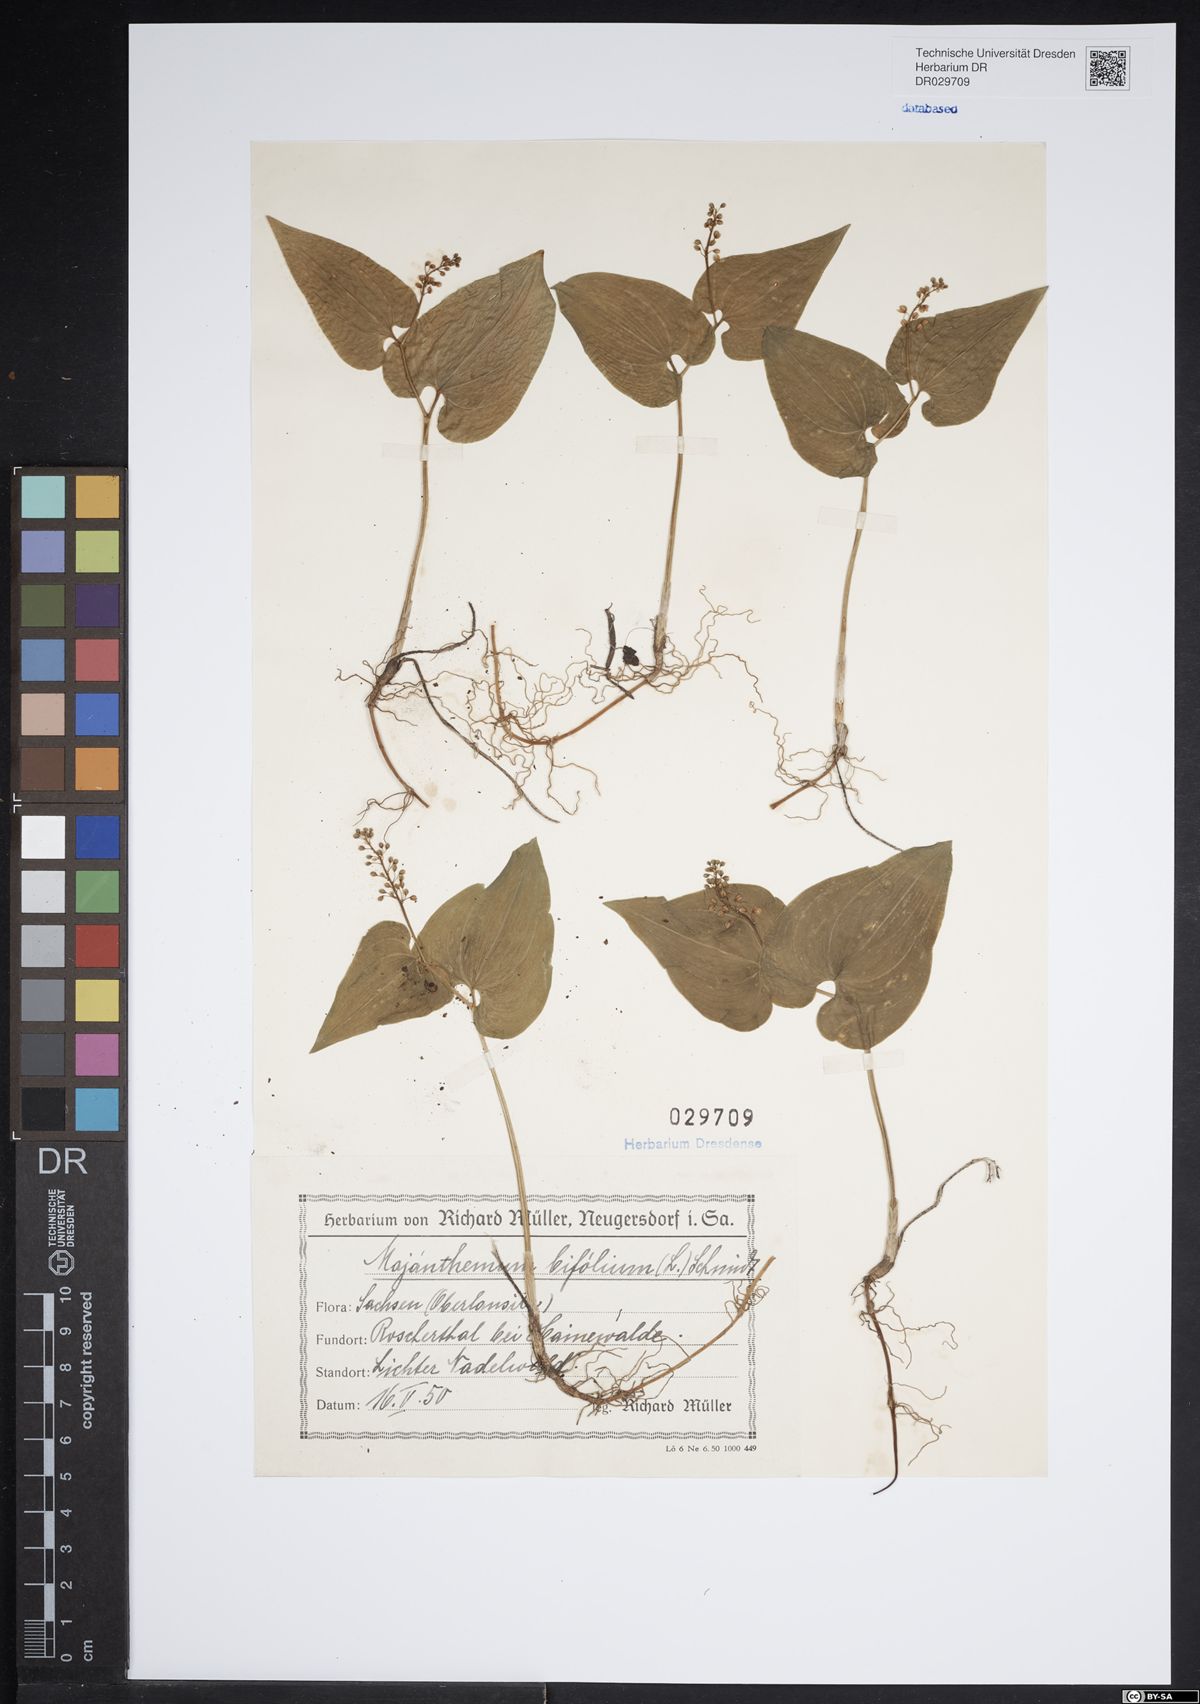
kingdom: Plantae
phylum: Tracheophyta
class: Liliopsida
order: Asparagales
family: Asparagaceae
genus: Maianthemum
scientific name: Maianthemum bifolium
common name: May lily
